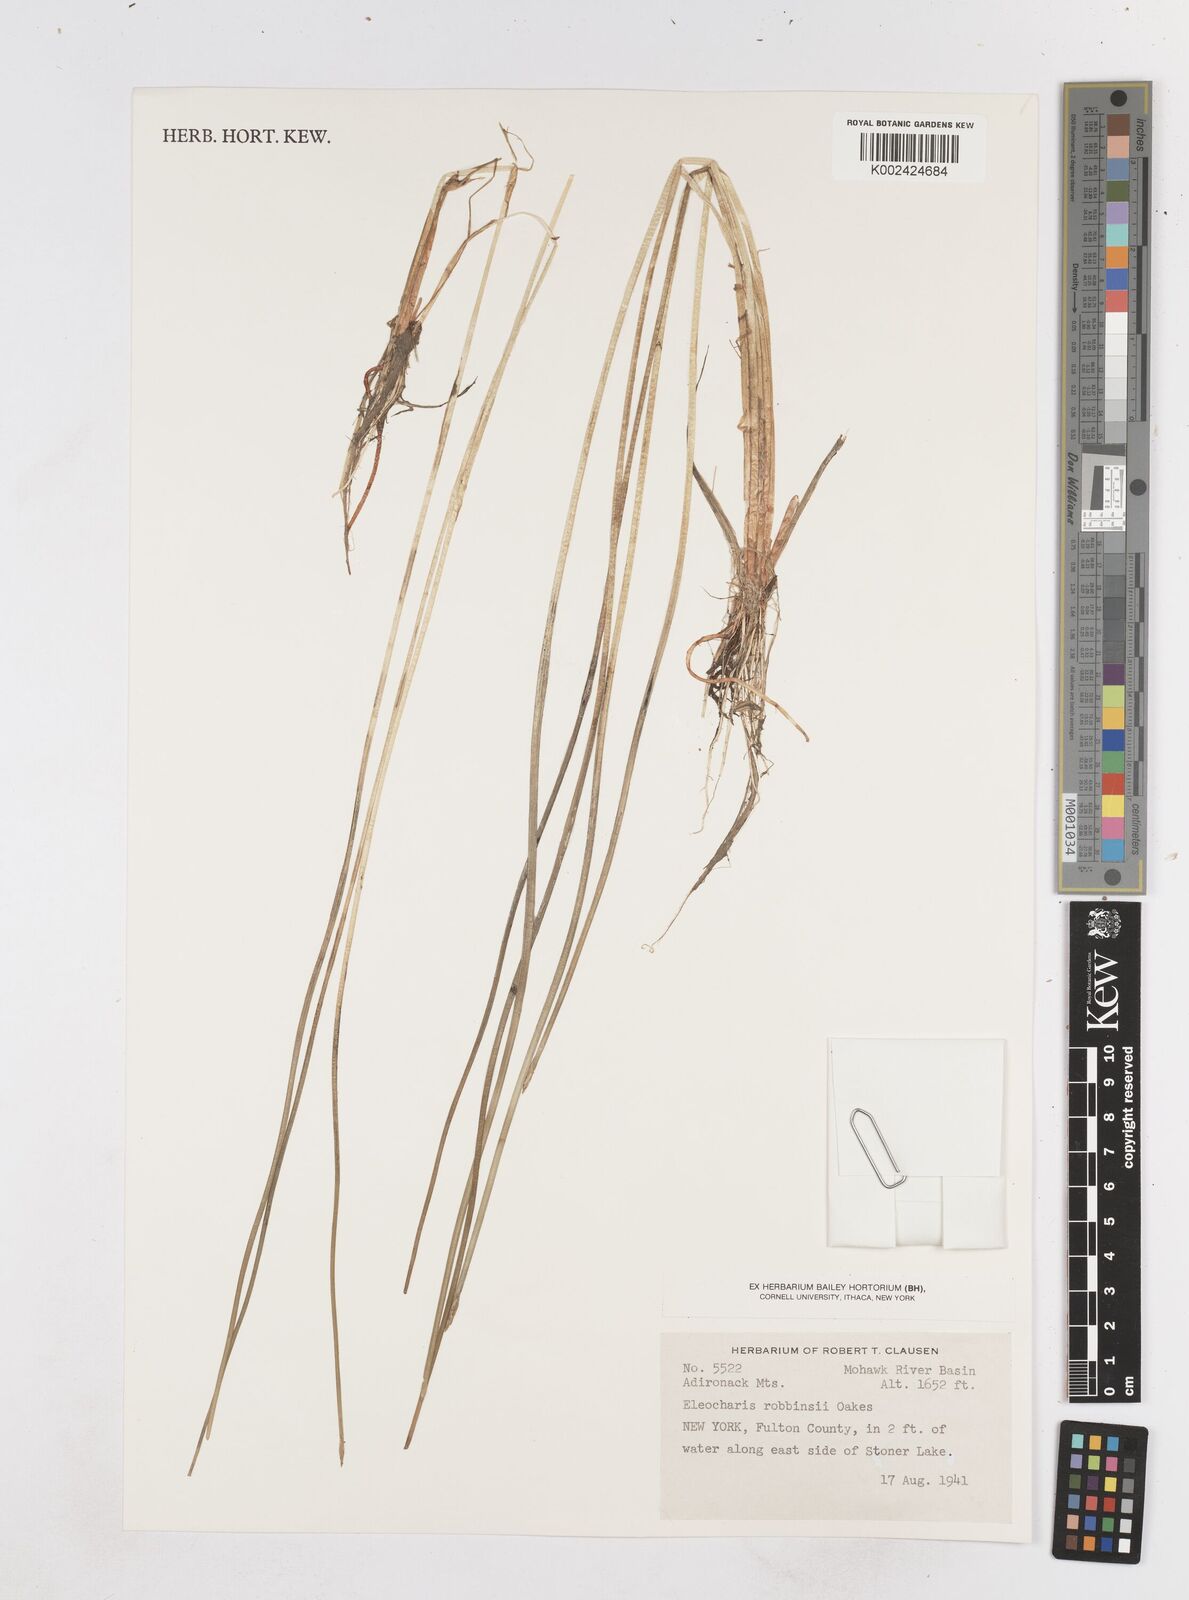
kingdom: Plantae
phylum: Tracheophyta
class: Liliopsida
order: Poales
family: Cyperaceae
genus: Eleocharis
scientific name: Eleocharis robbinsii
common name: Robbins' spikerush
